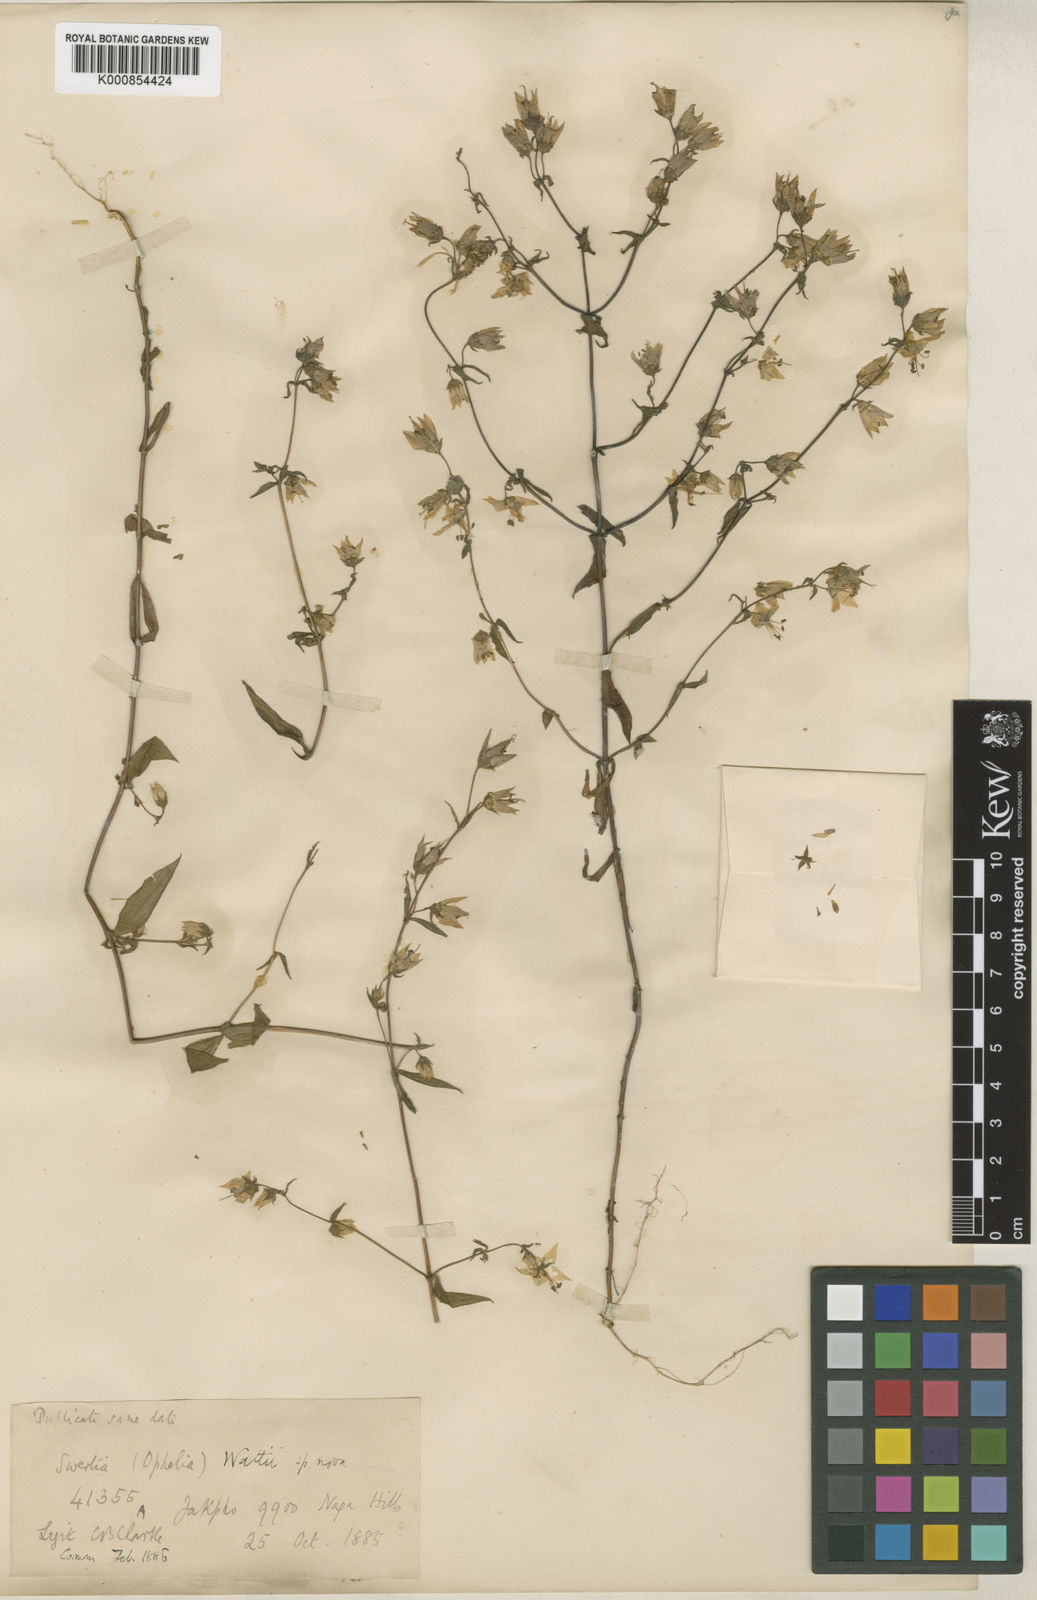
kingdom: Plantae
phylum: Tracheophyta
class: Magnoliopsida
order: Gentianales
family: Gentianaceae
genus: Swertia
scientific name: Swertia wattii
